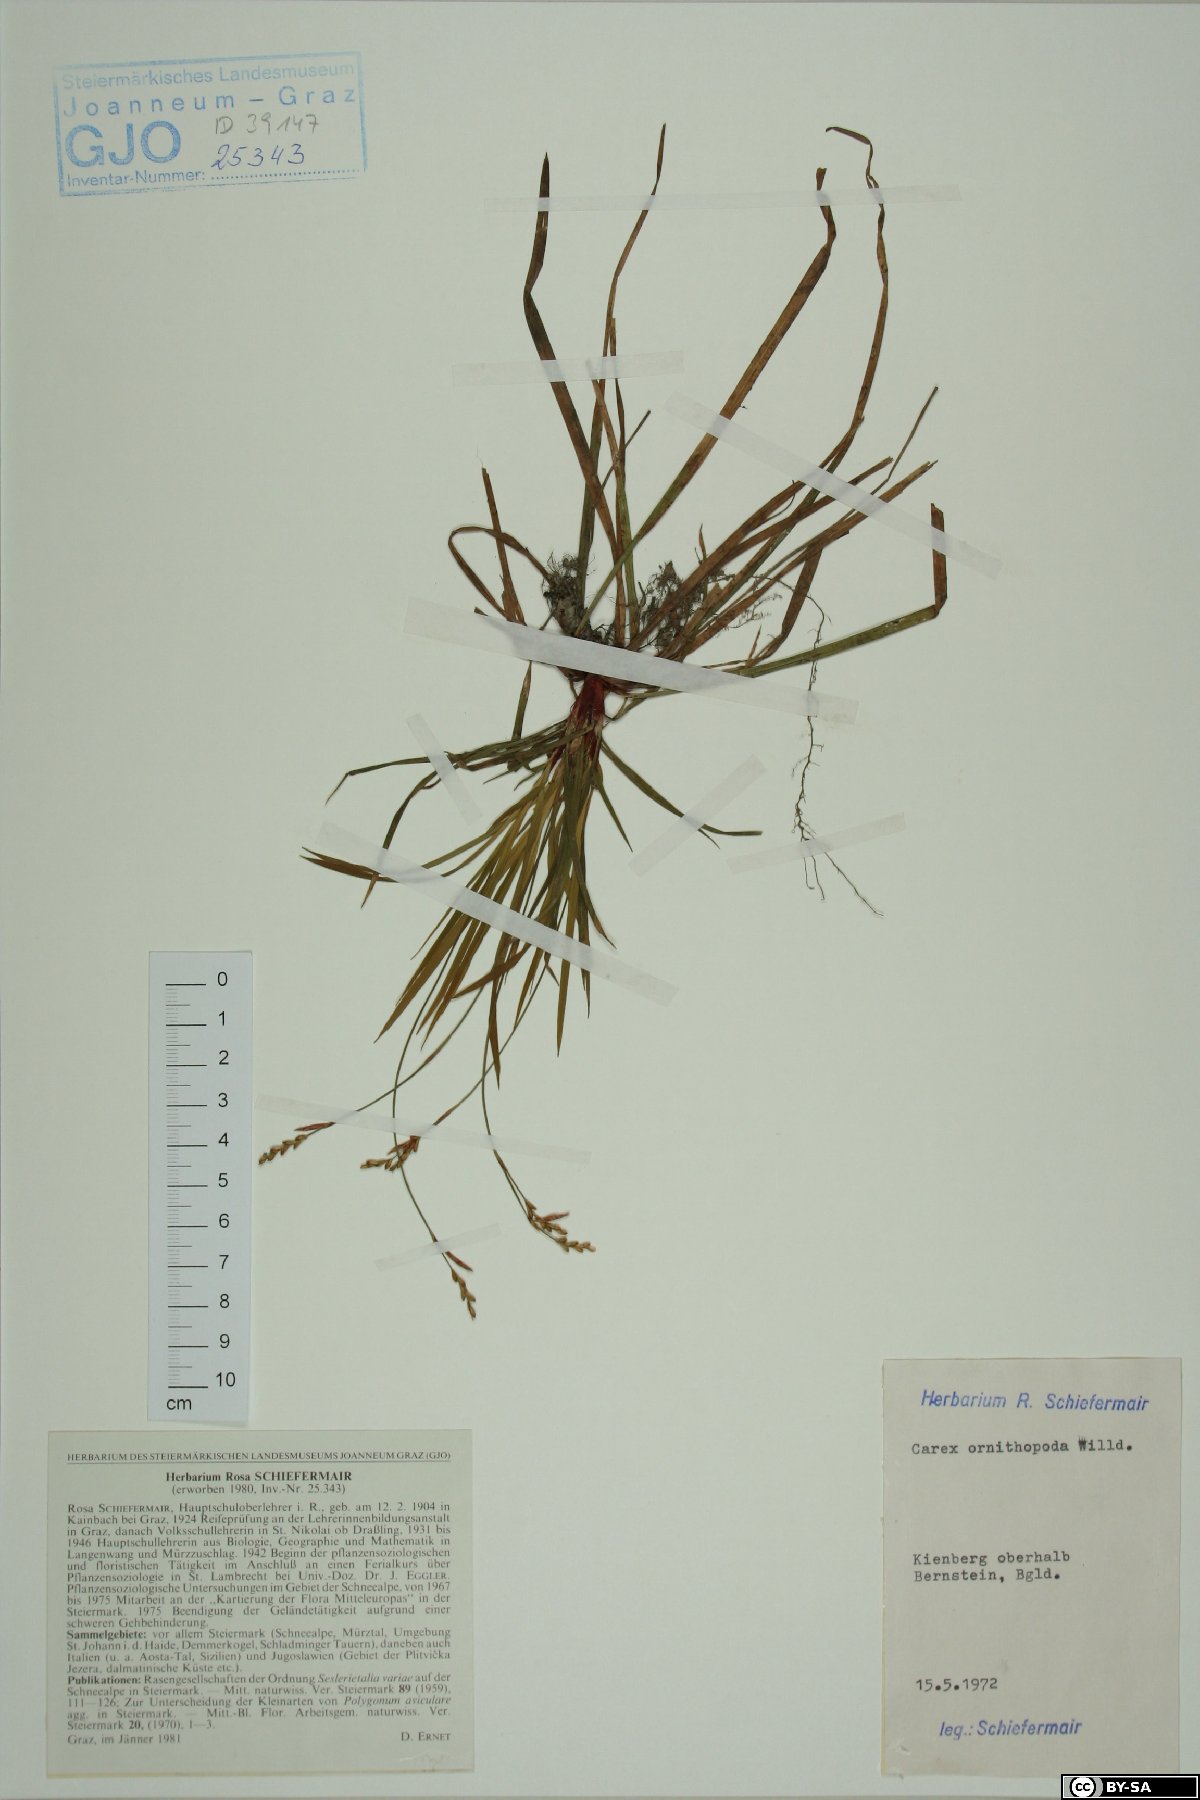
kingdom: Plantae
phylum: Tracheophyta
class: Liliopsida
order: Poales
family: Cyperaceae
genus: Carex
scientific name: Carex ornithopoda
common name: Bird's-foot sedge
